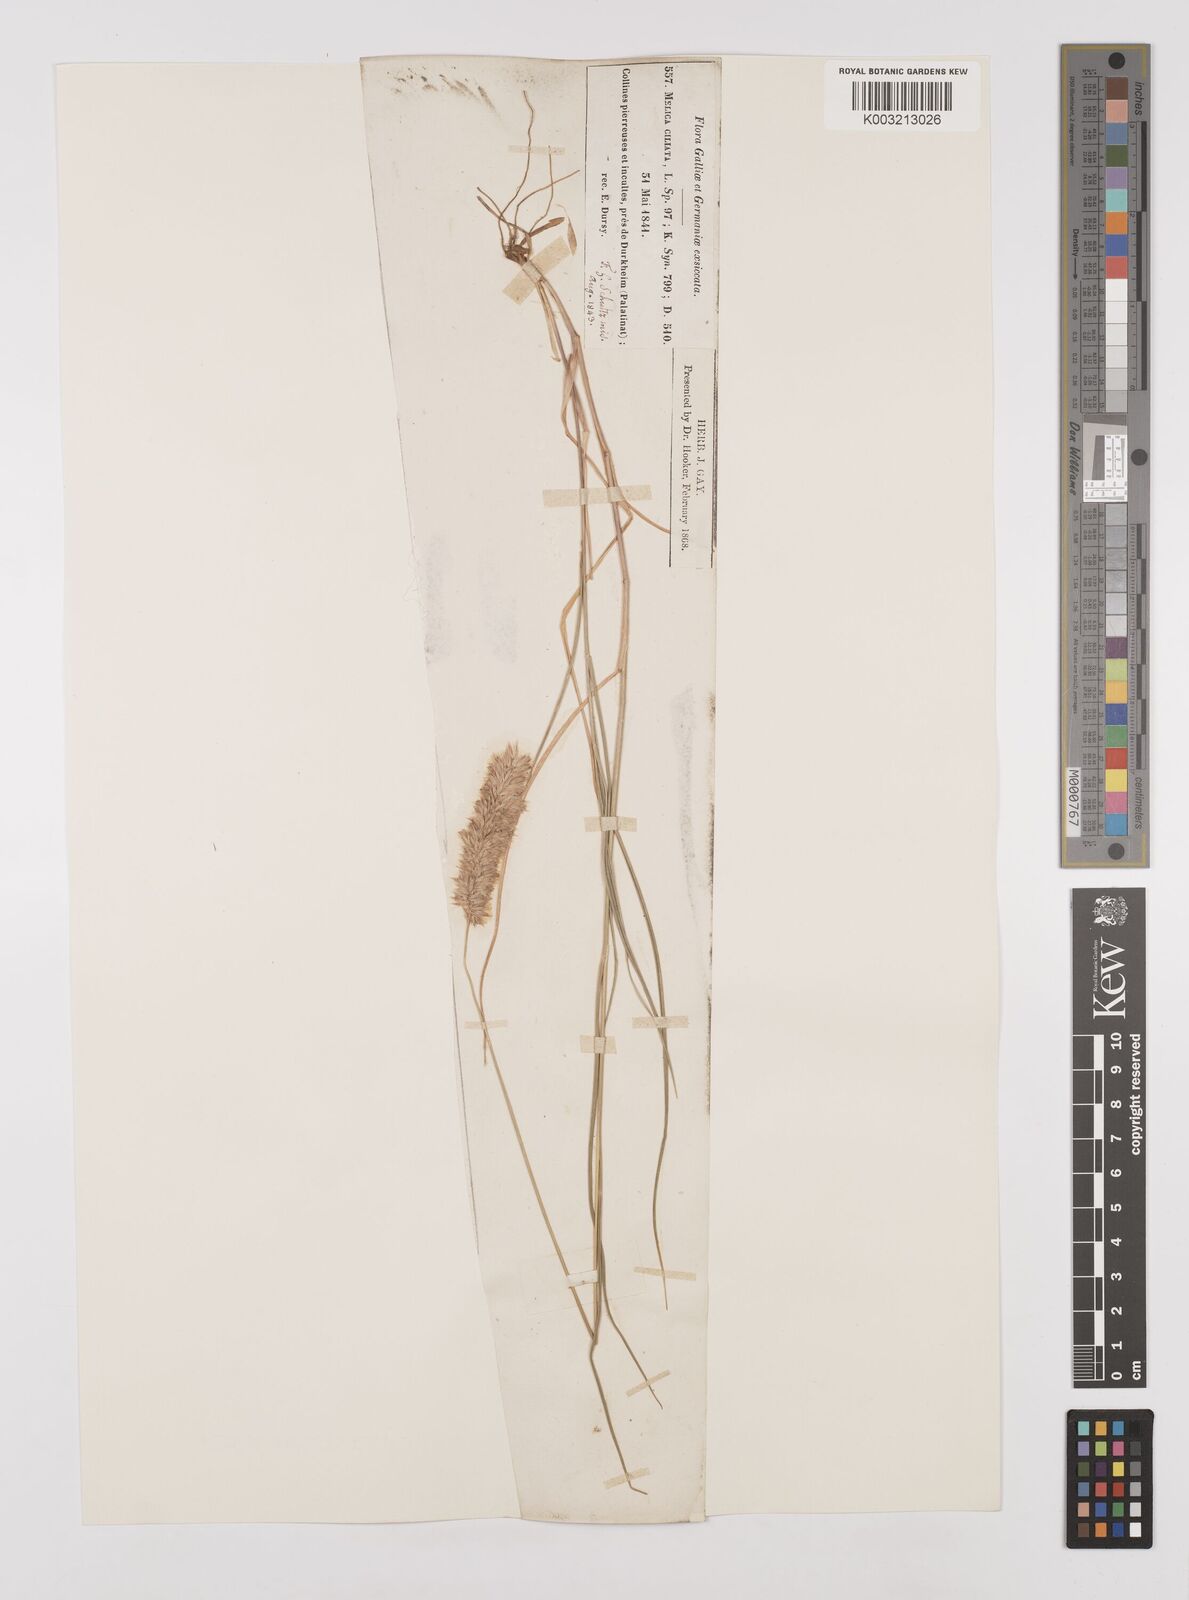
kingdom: Plantae
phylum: Tracheophyta
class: Liliopsida
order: Poales
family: Poaceae
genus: Melica
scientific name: Melica ciliata
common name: Hairy melicgrass
